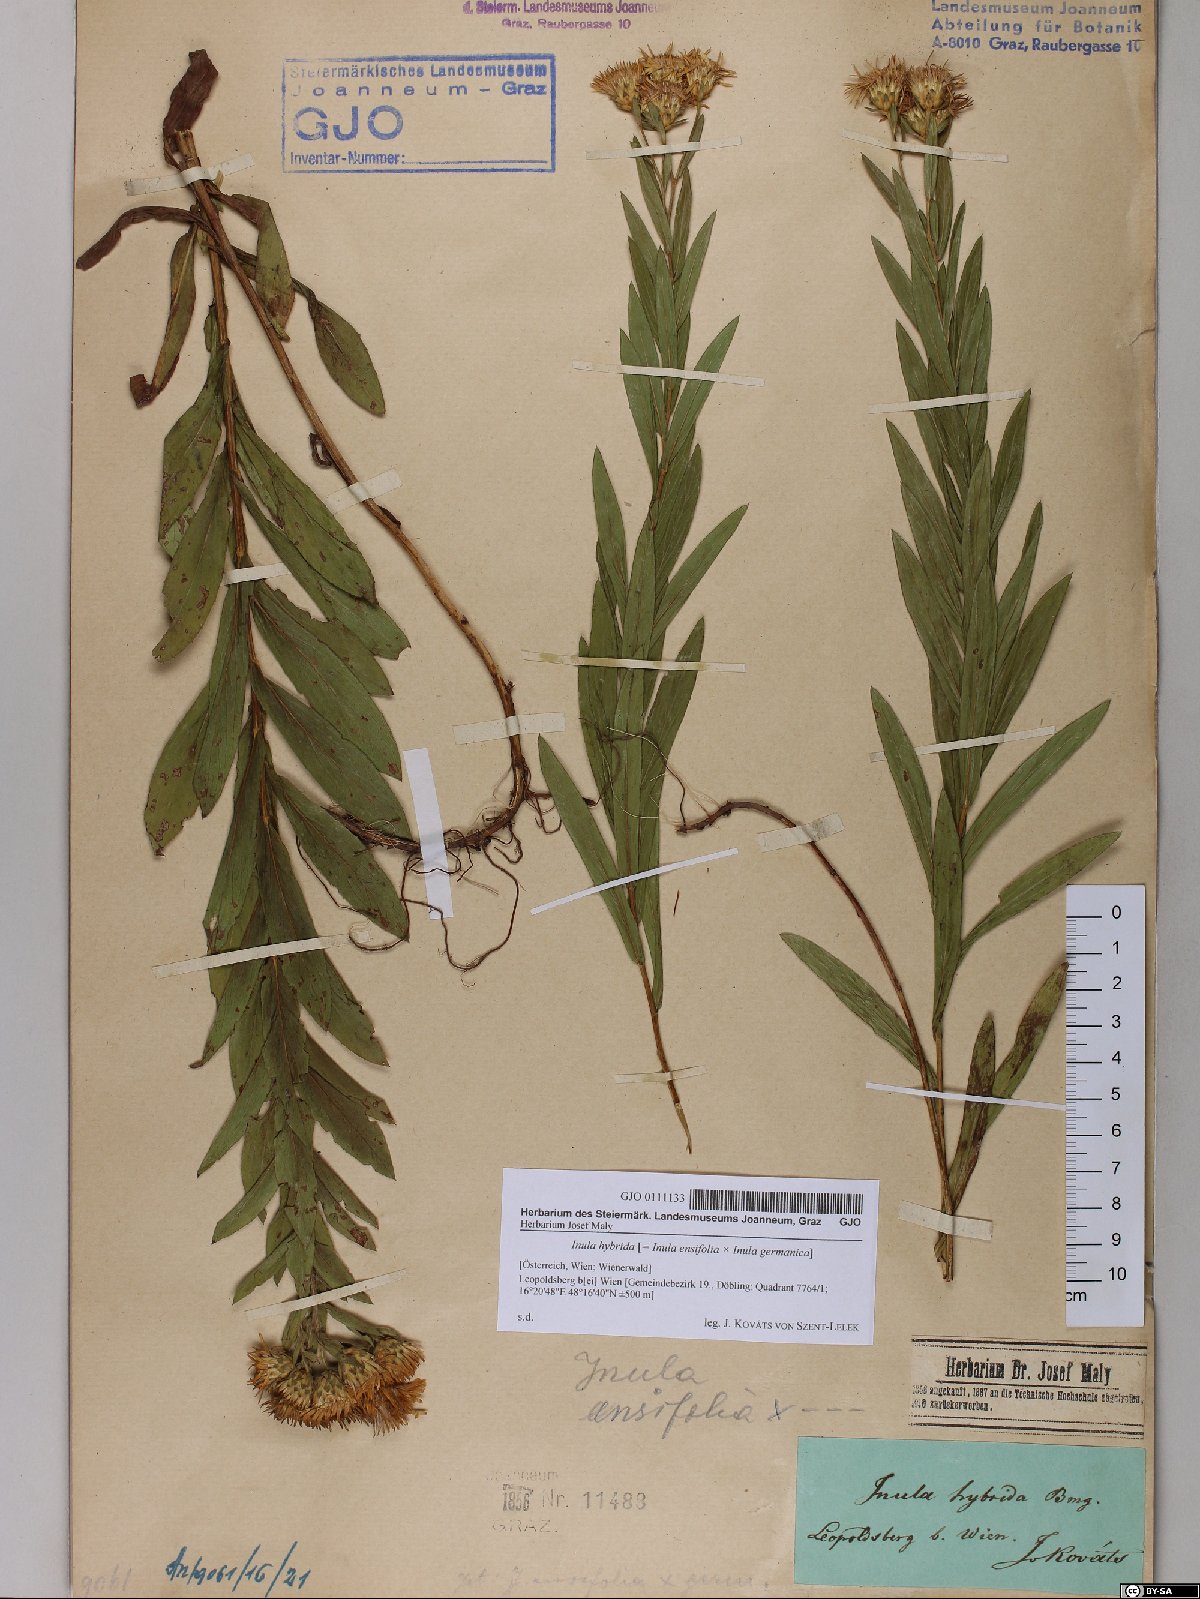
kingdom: Plantae
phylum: Tracheophyta
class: Magnoliopsida
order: Asterales
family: Asteraceae
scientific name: Asteraceae
